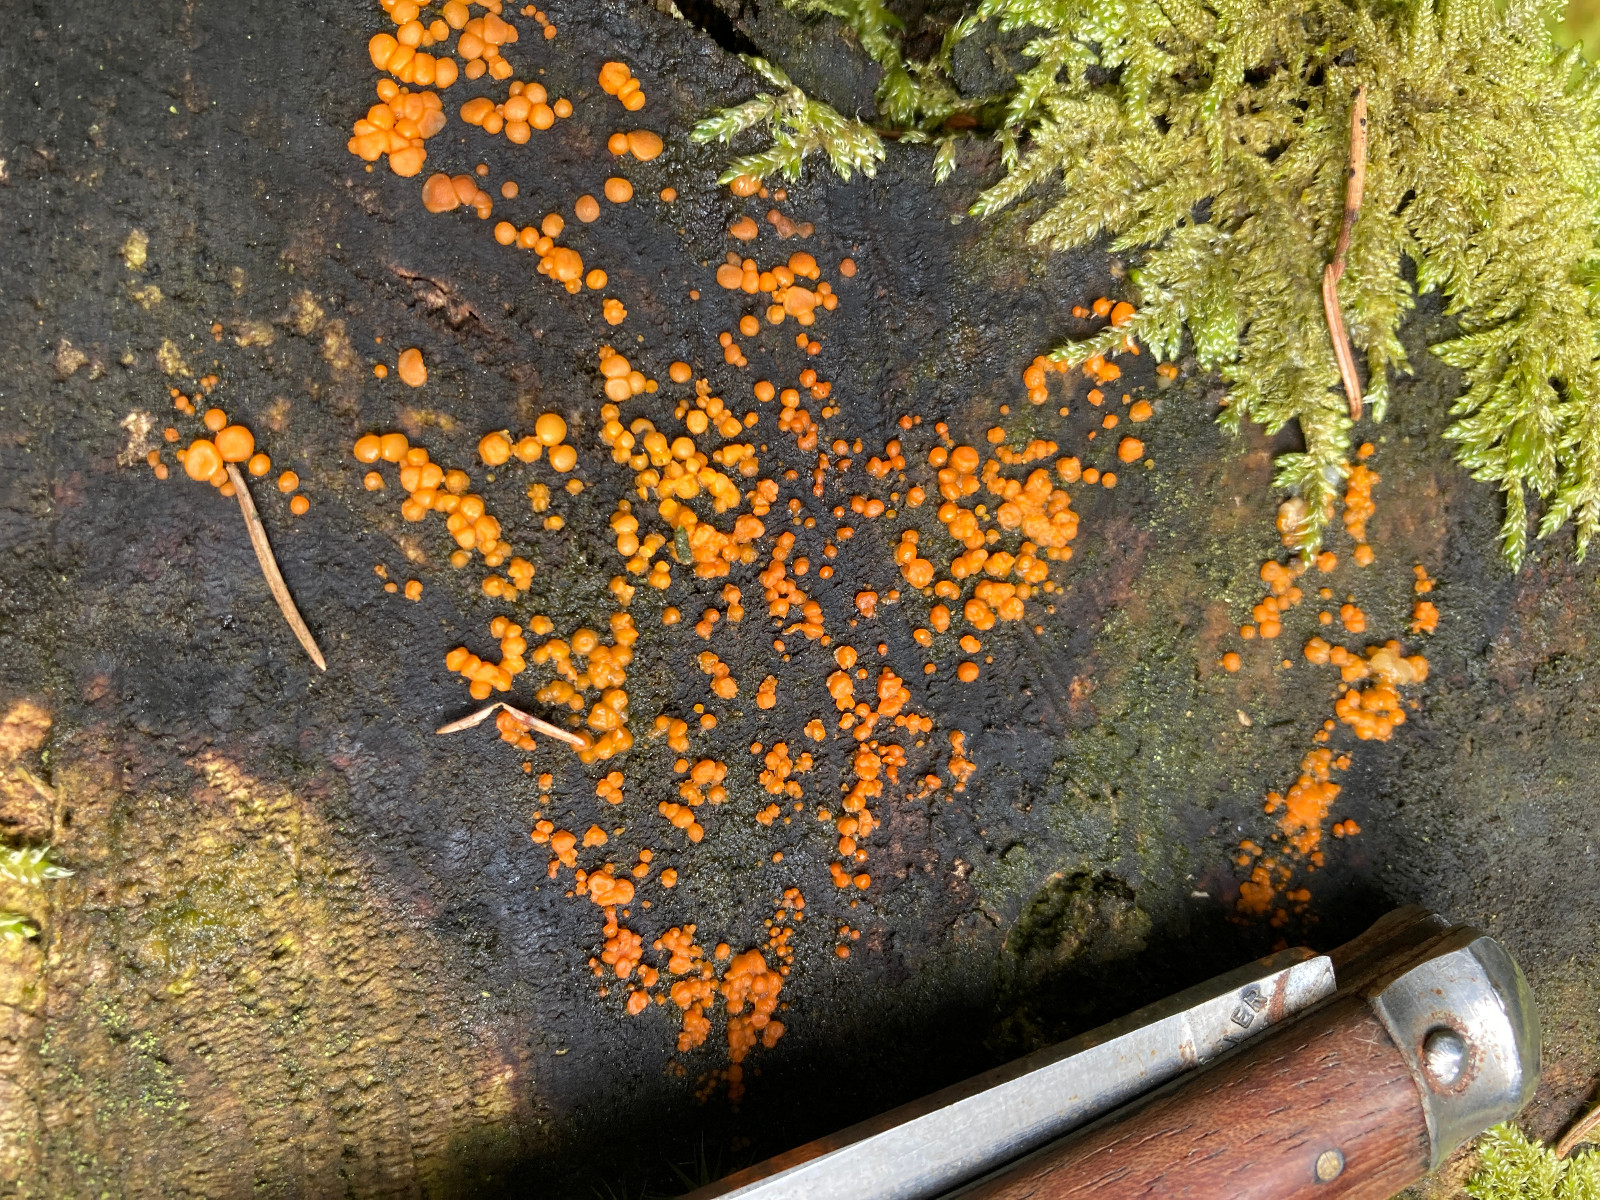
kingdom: Fungi
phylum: Basidiomycota
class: Dacrymycetes
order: Dacrymycetales
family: Dacrymycetaceae
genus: Dacrymyces
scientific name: Dacrymyces stillatus
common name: almindelig tåresvamp
